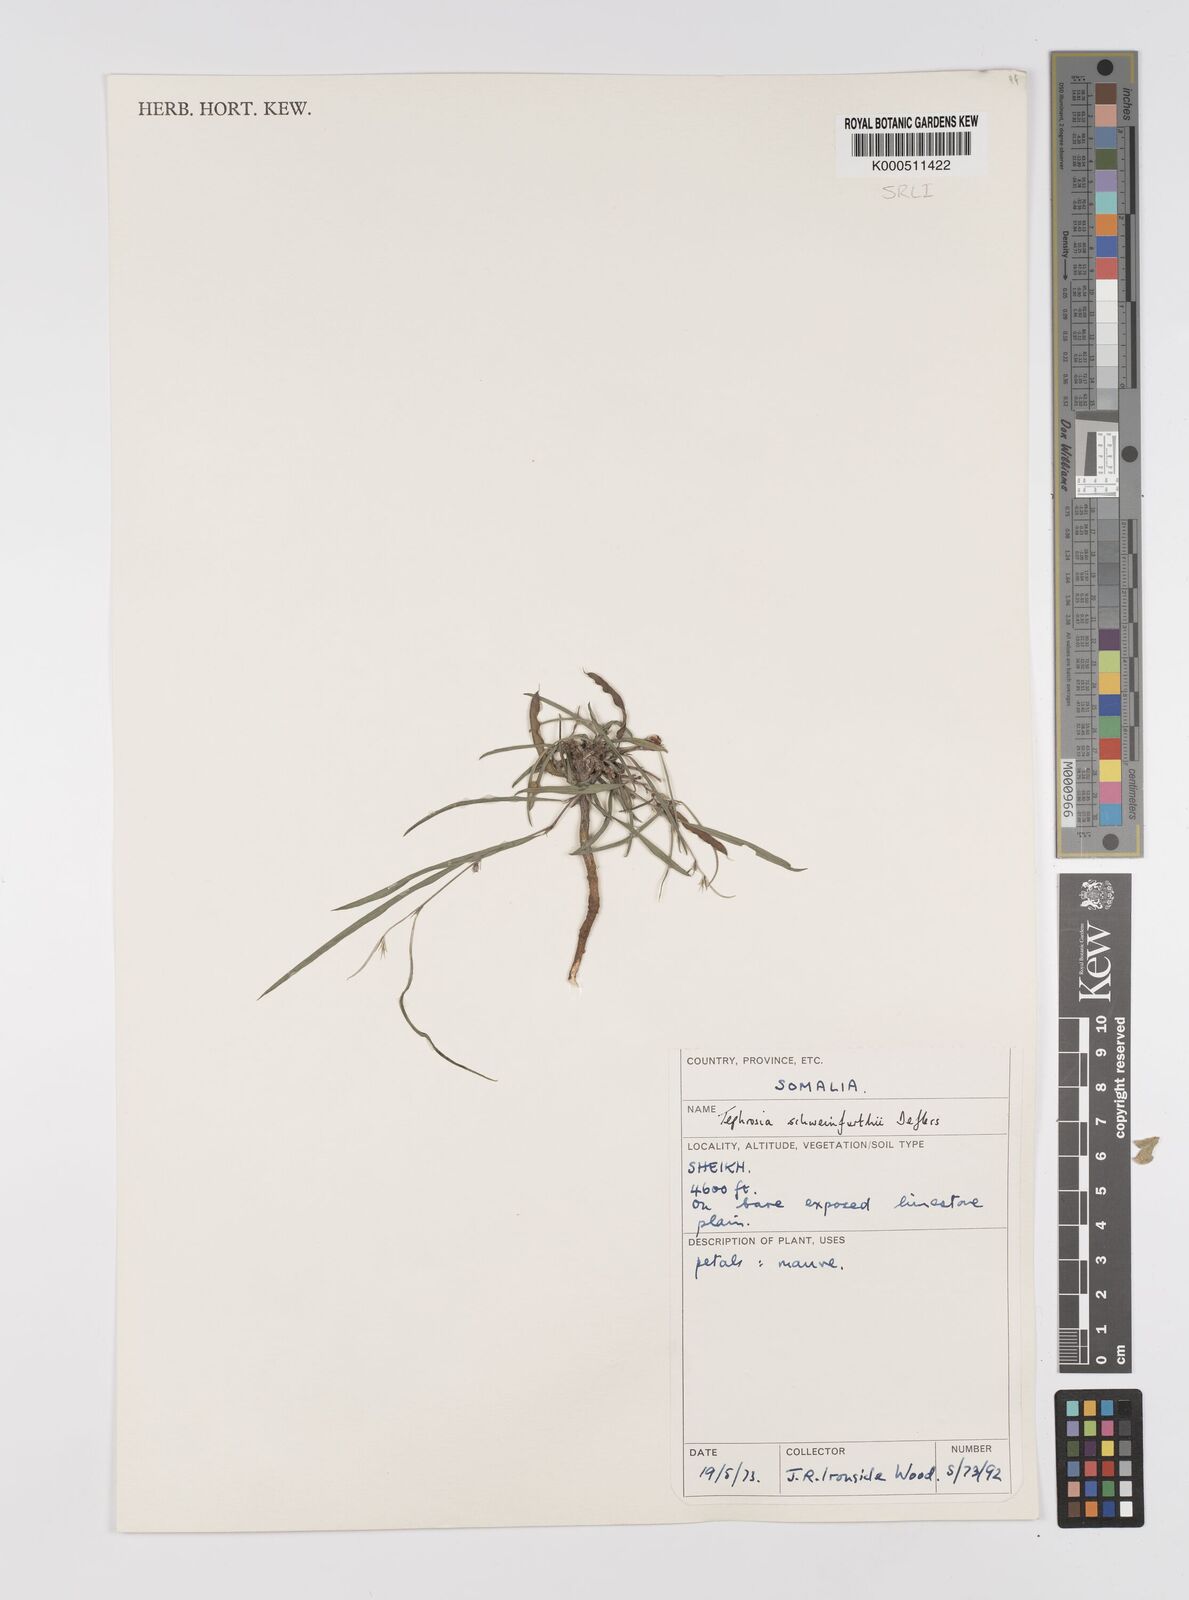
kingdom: Plantae
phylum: Tracheophyta
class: Magnoliopsida
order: Fabales
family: Fabaceae
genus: Tephrosia
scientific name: Tephrosia heterophylla
